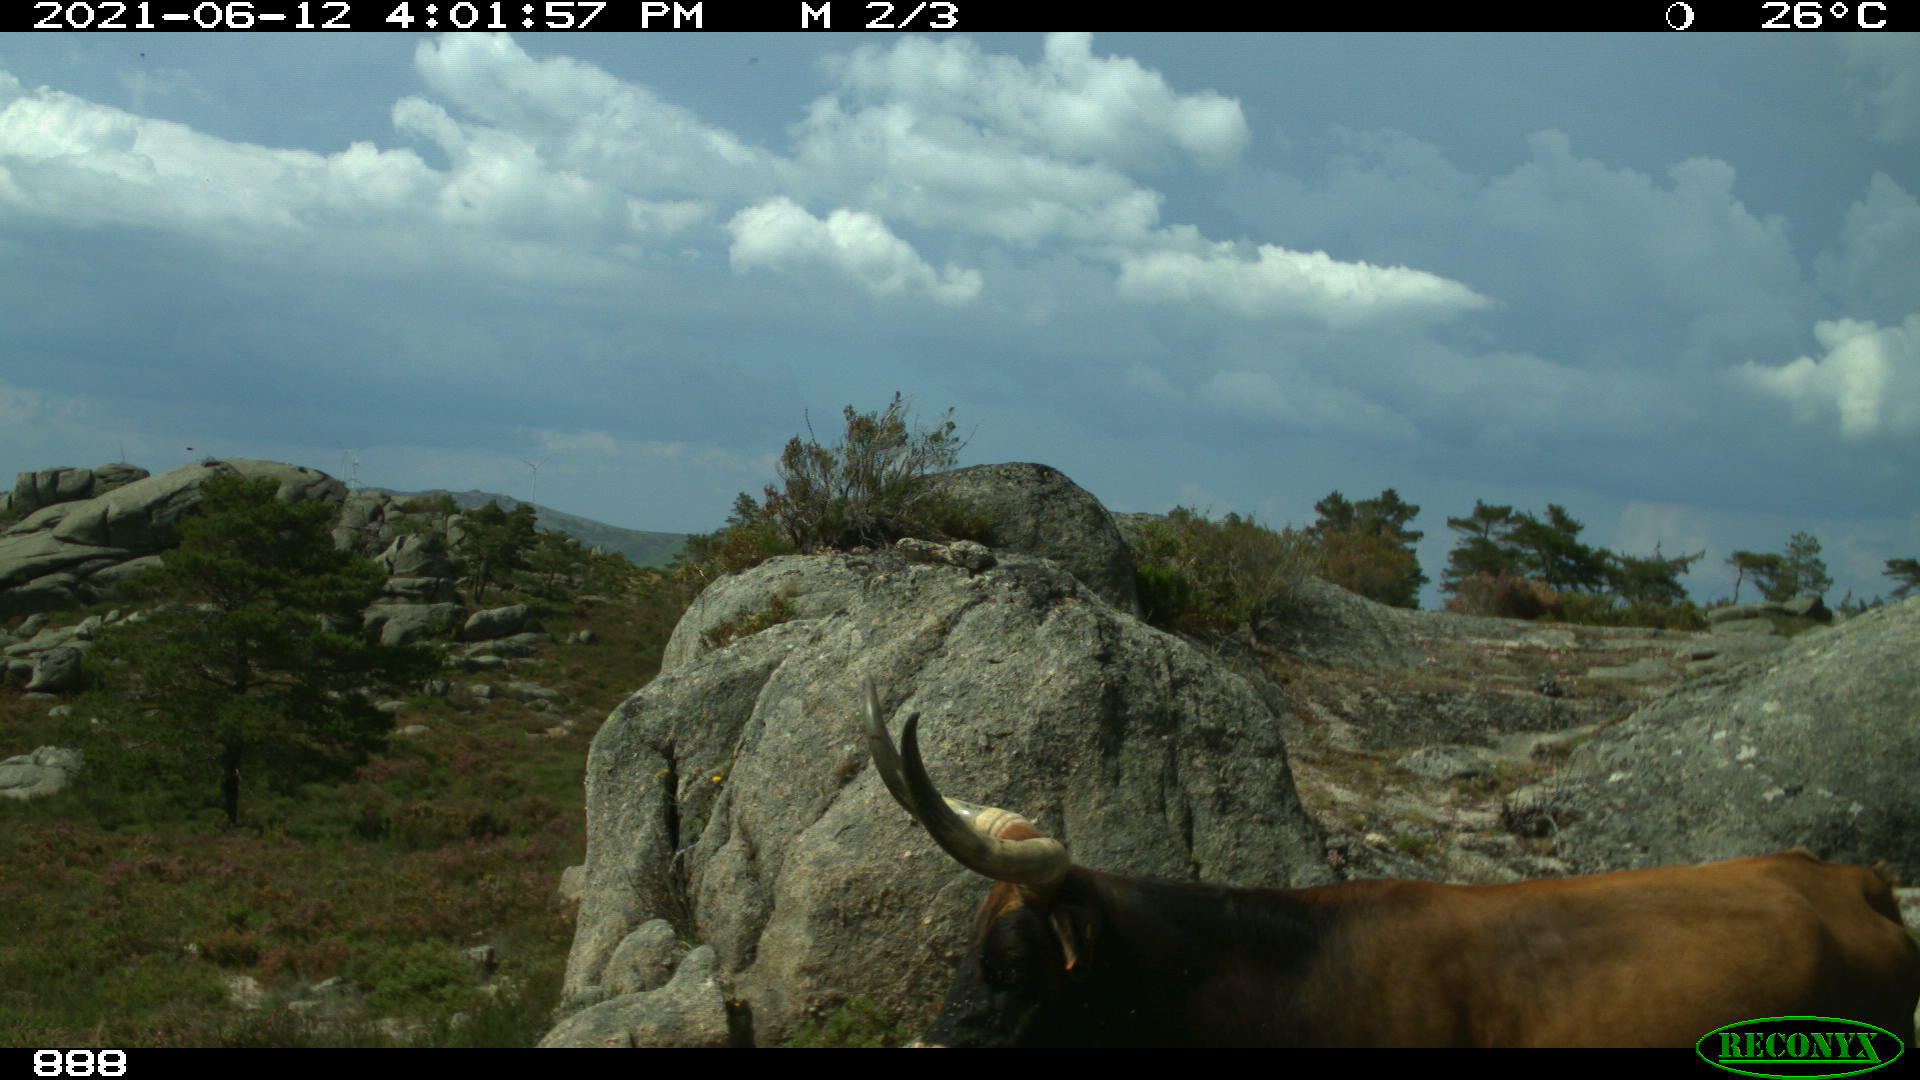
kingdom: Animalia
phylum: Chordata
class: Mammalia
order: Artiodactyla
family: Bovidae
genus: Bos
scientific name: Bos taurus
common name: Domesticated cattle
